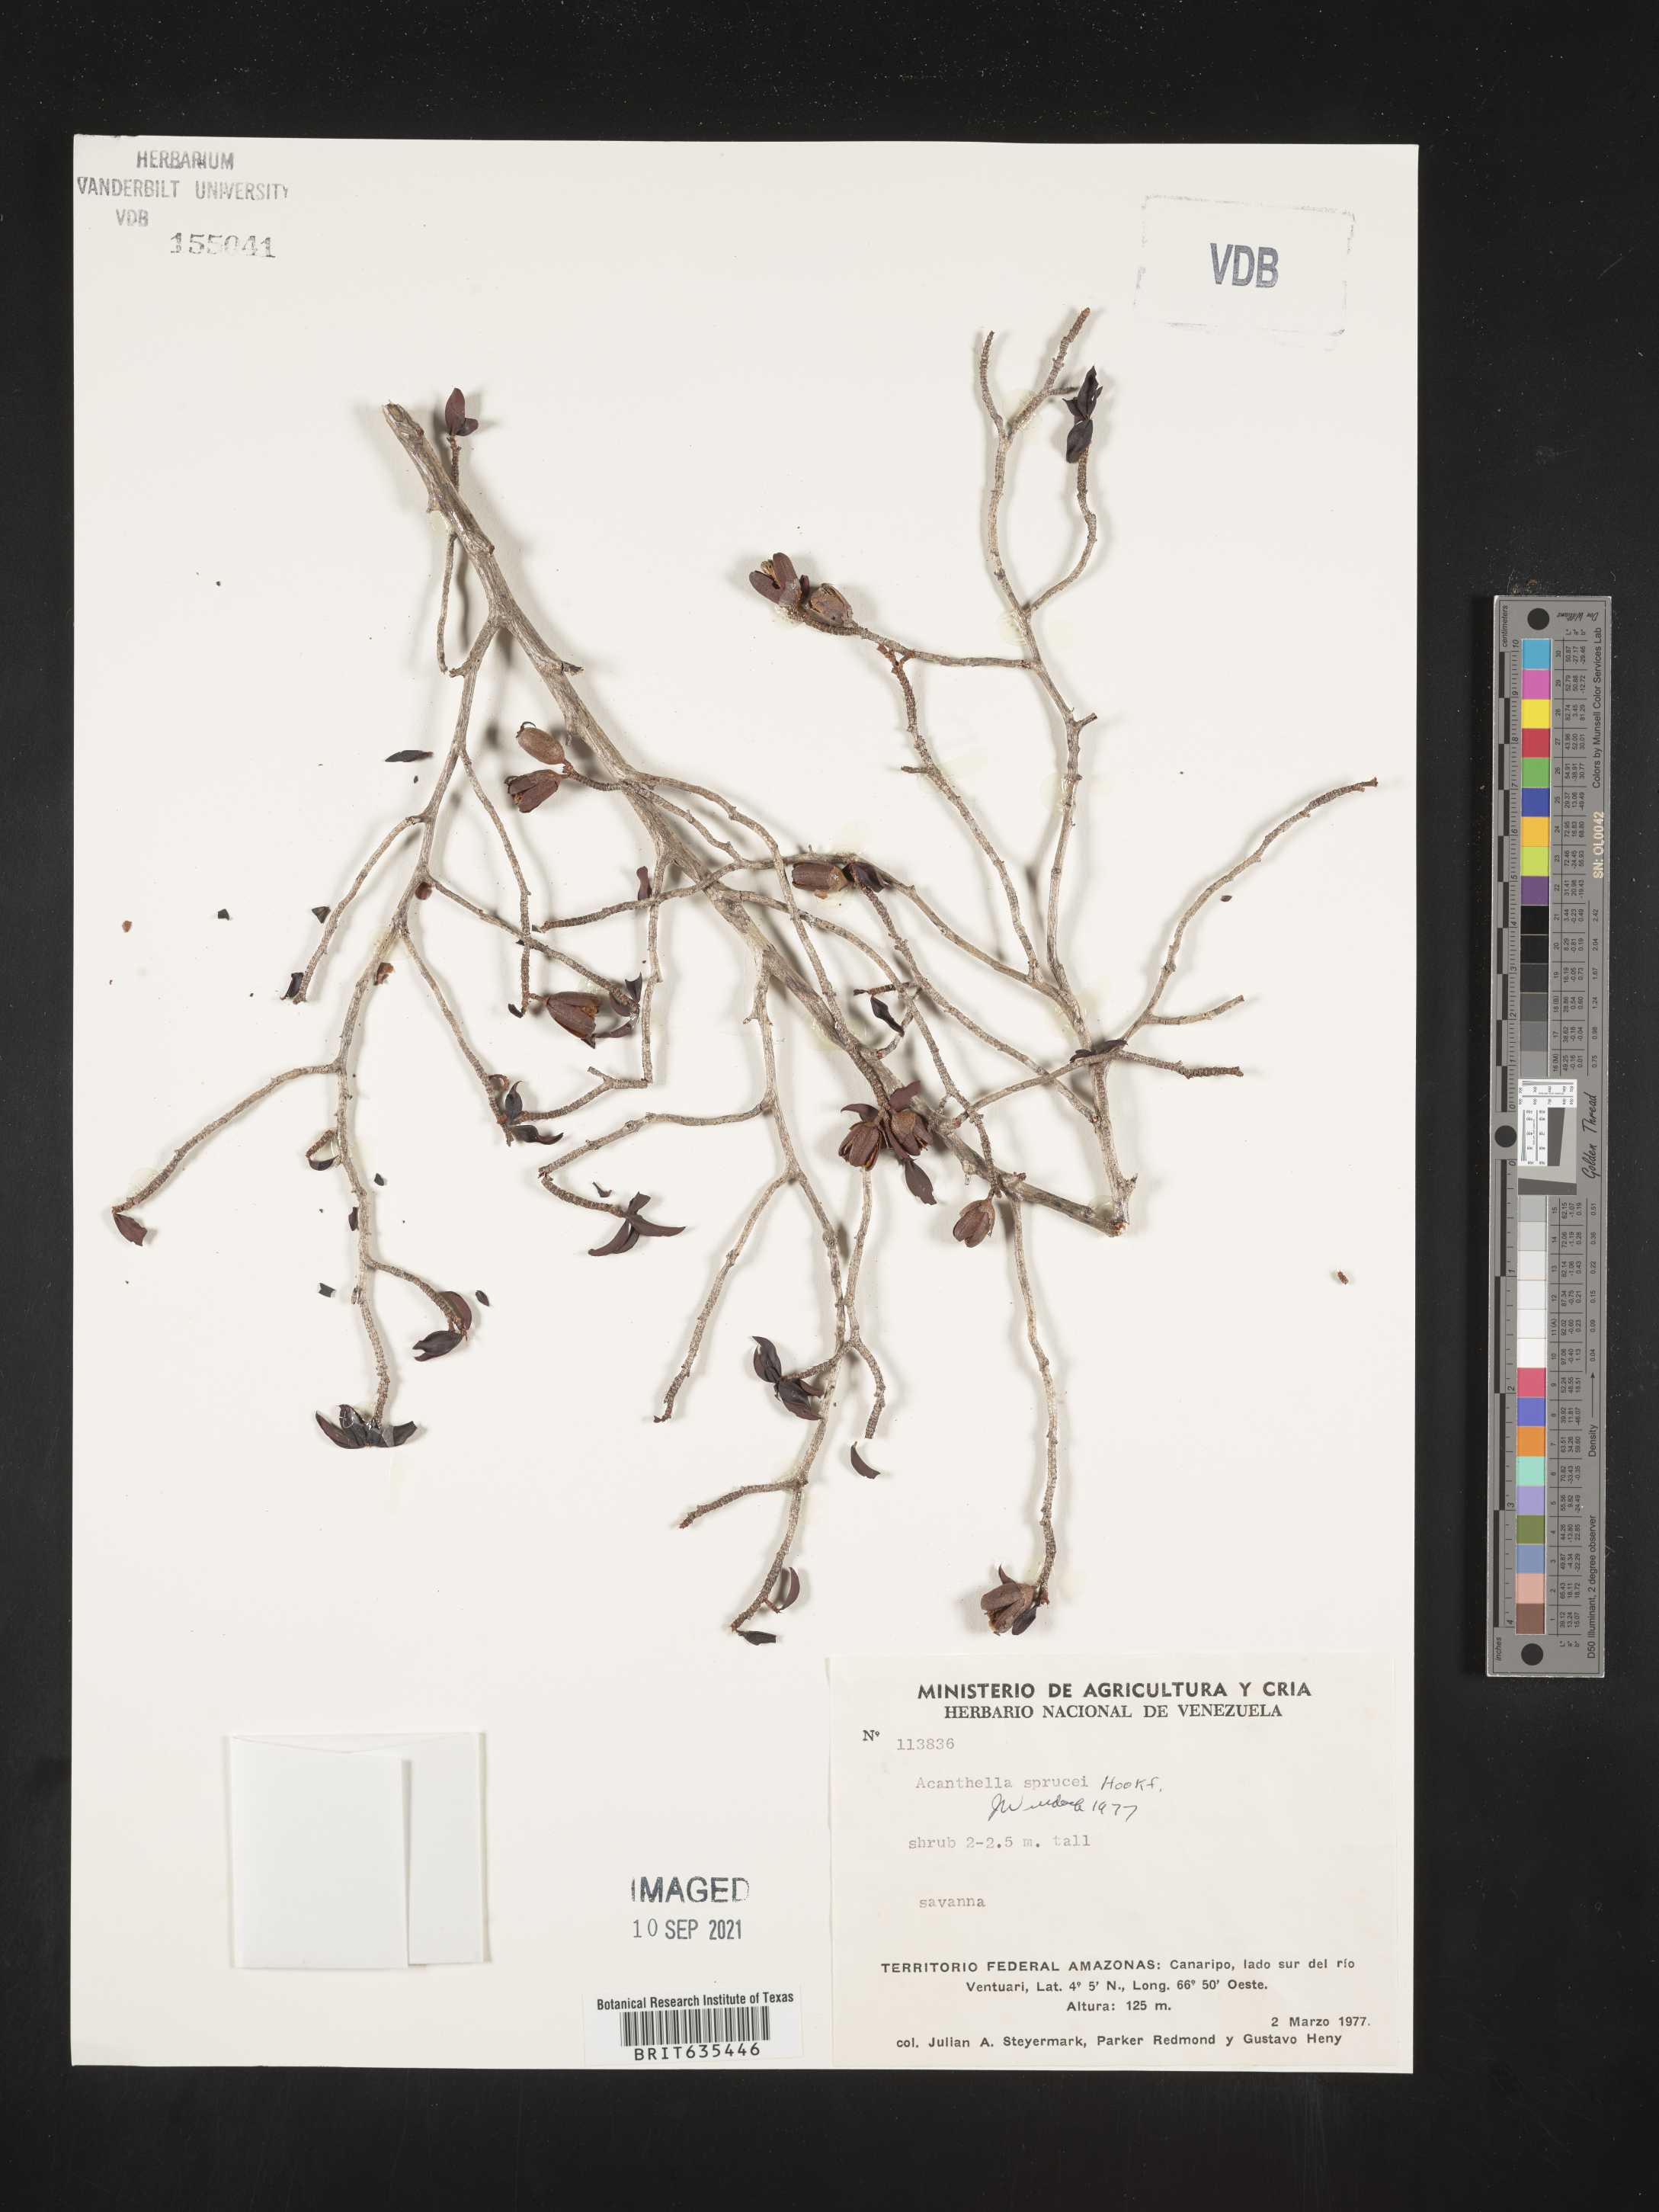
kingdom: Plantae
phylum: Tracheophyta
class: Magnoliopsida
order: Myrtales
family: Melastomataceae
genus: Acanthella
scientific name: Acanthella
